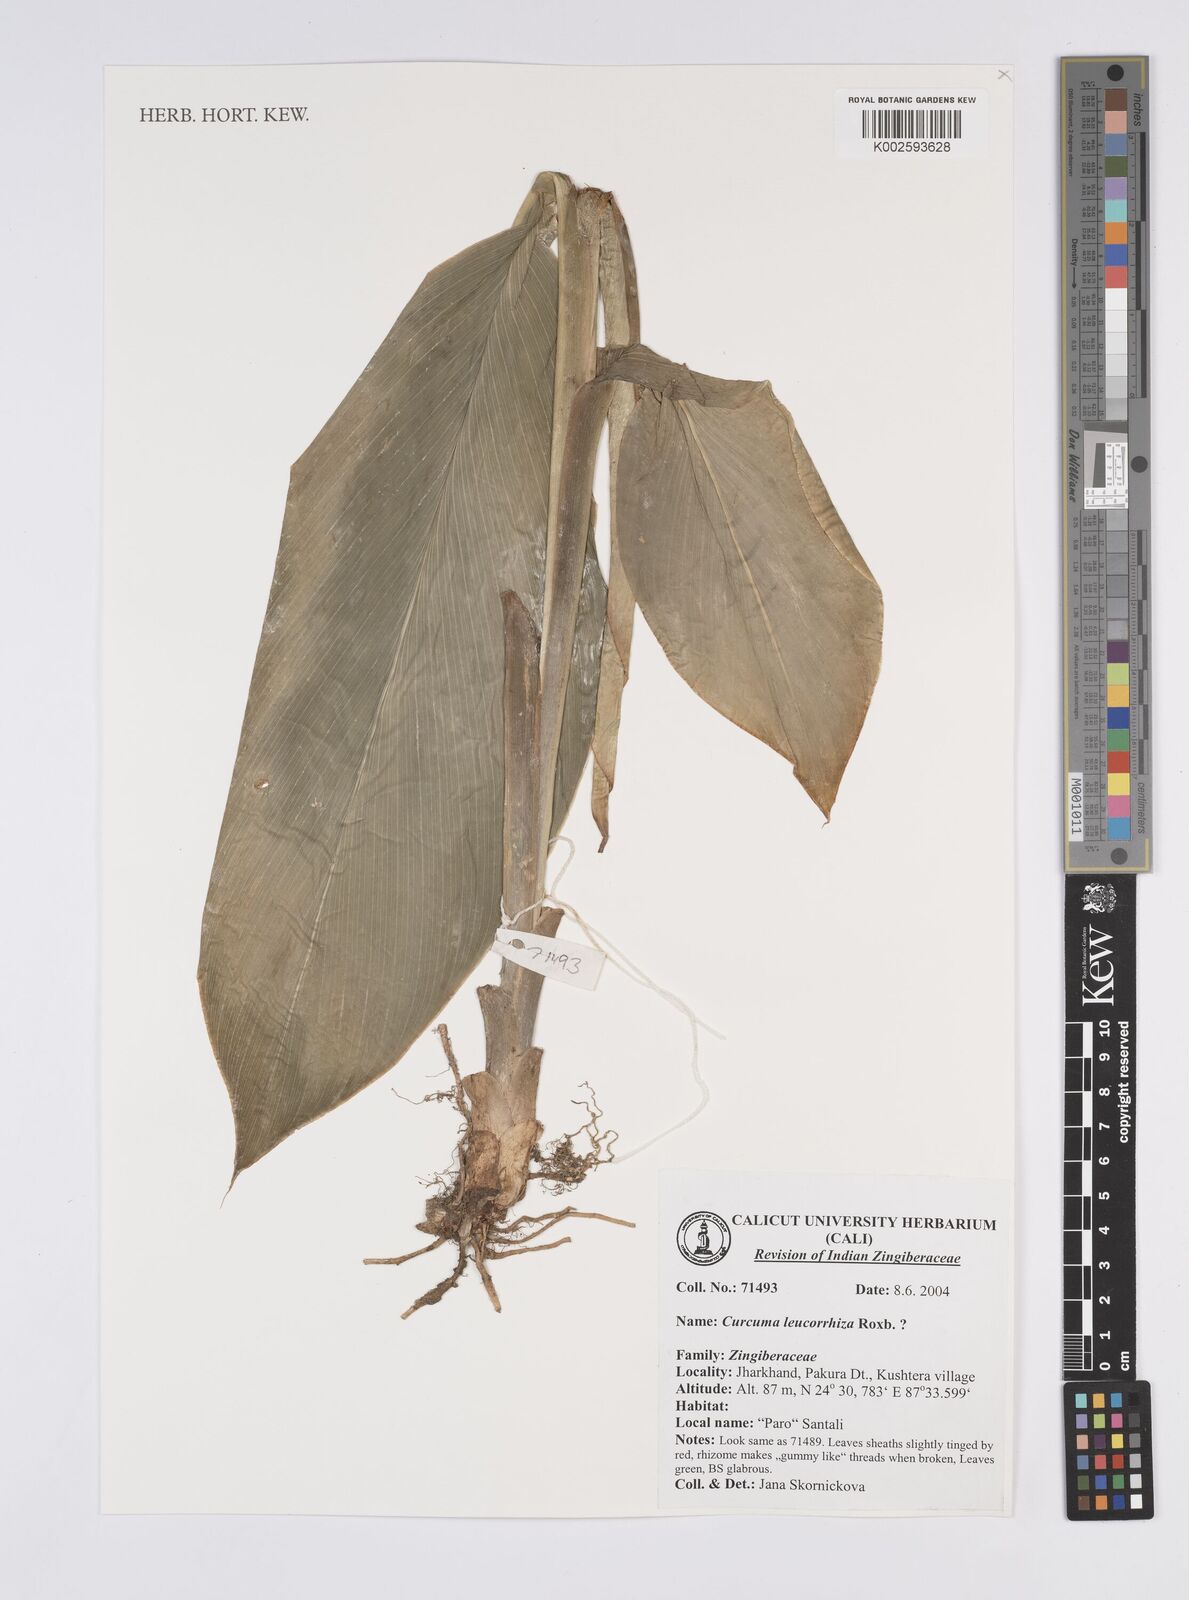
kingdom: Plantae
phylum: Tracheophyta
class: Liliopsida
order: Zingiberales
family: Zingiberaceae
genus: Curcuma
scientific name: Curcuma leucorrhiza
